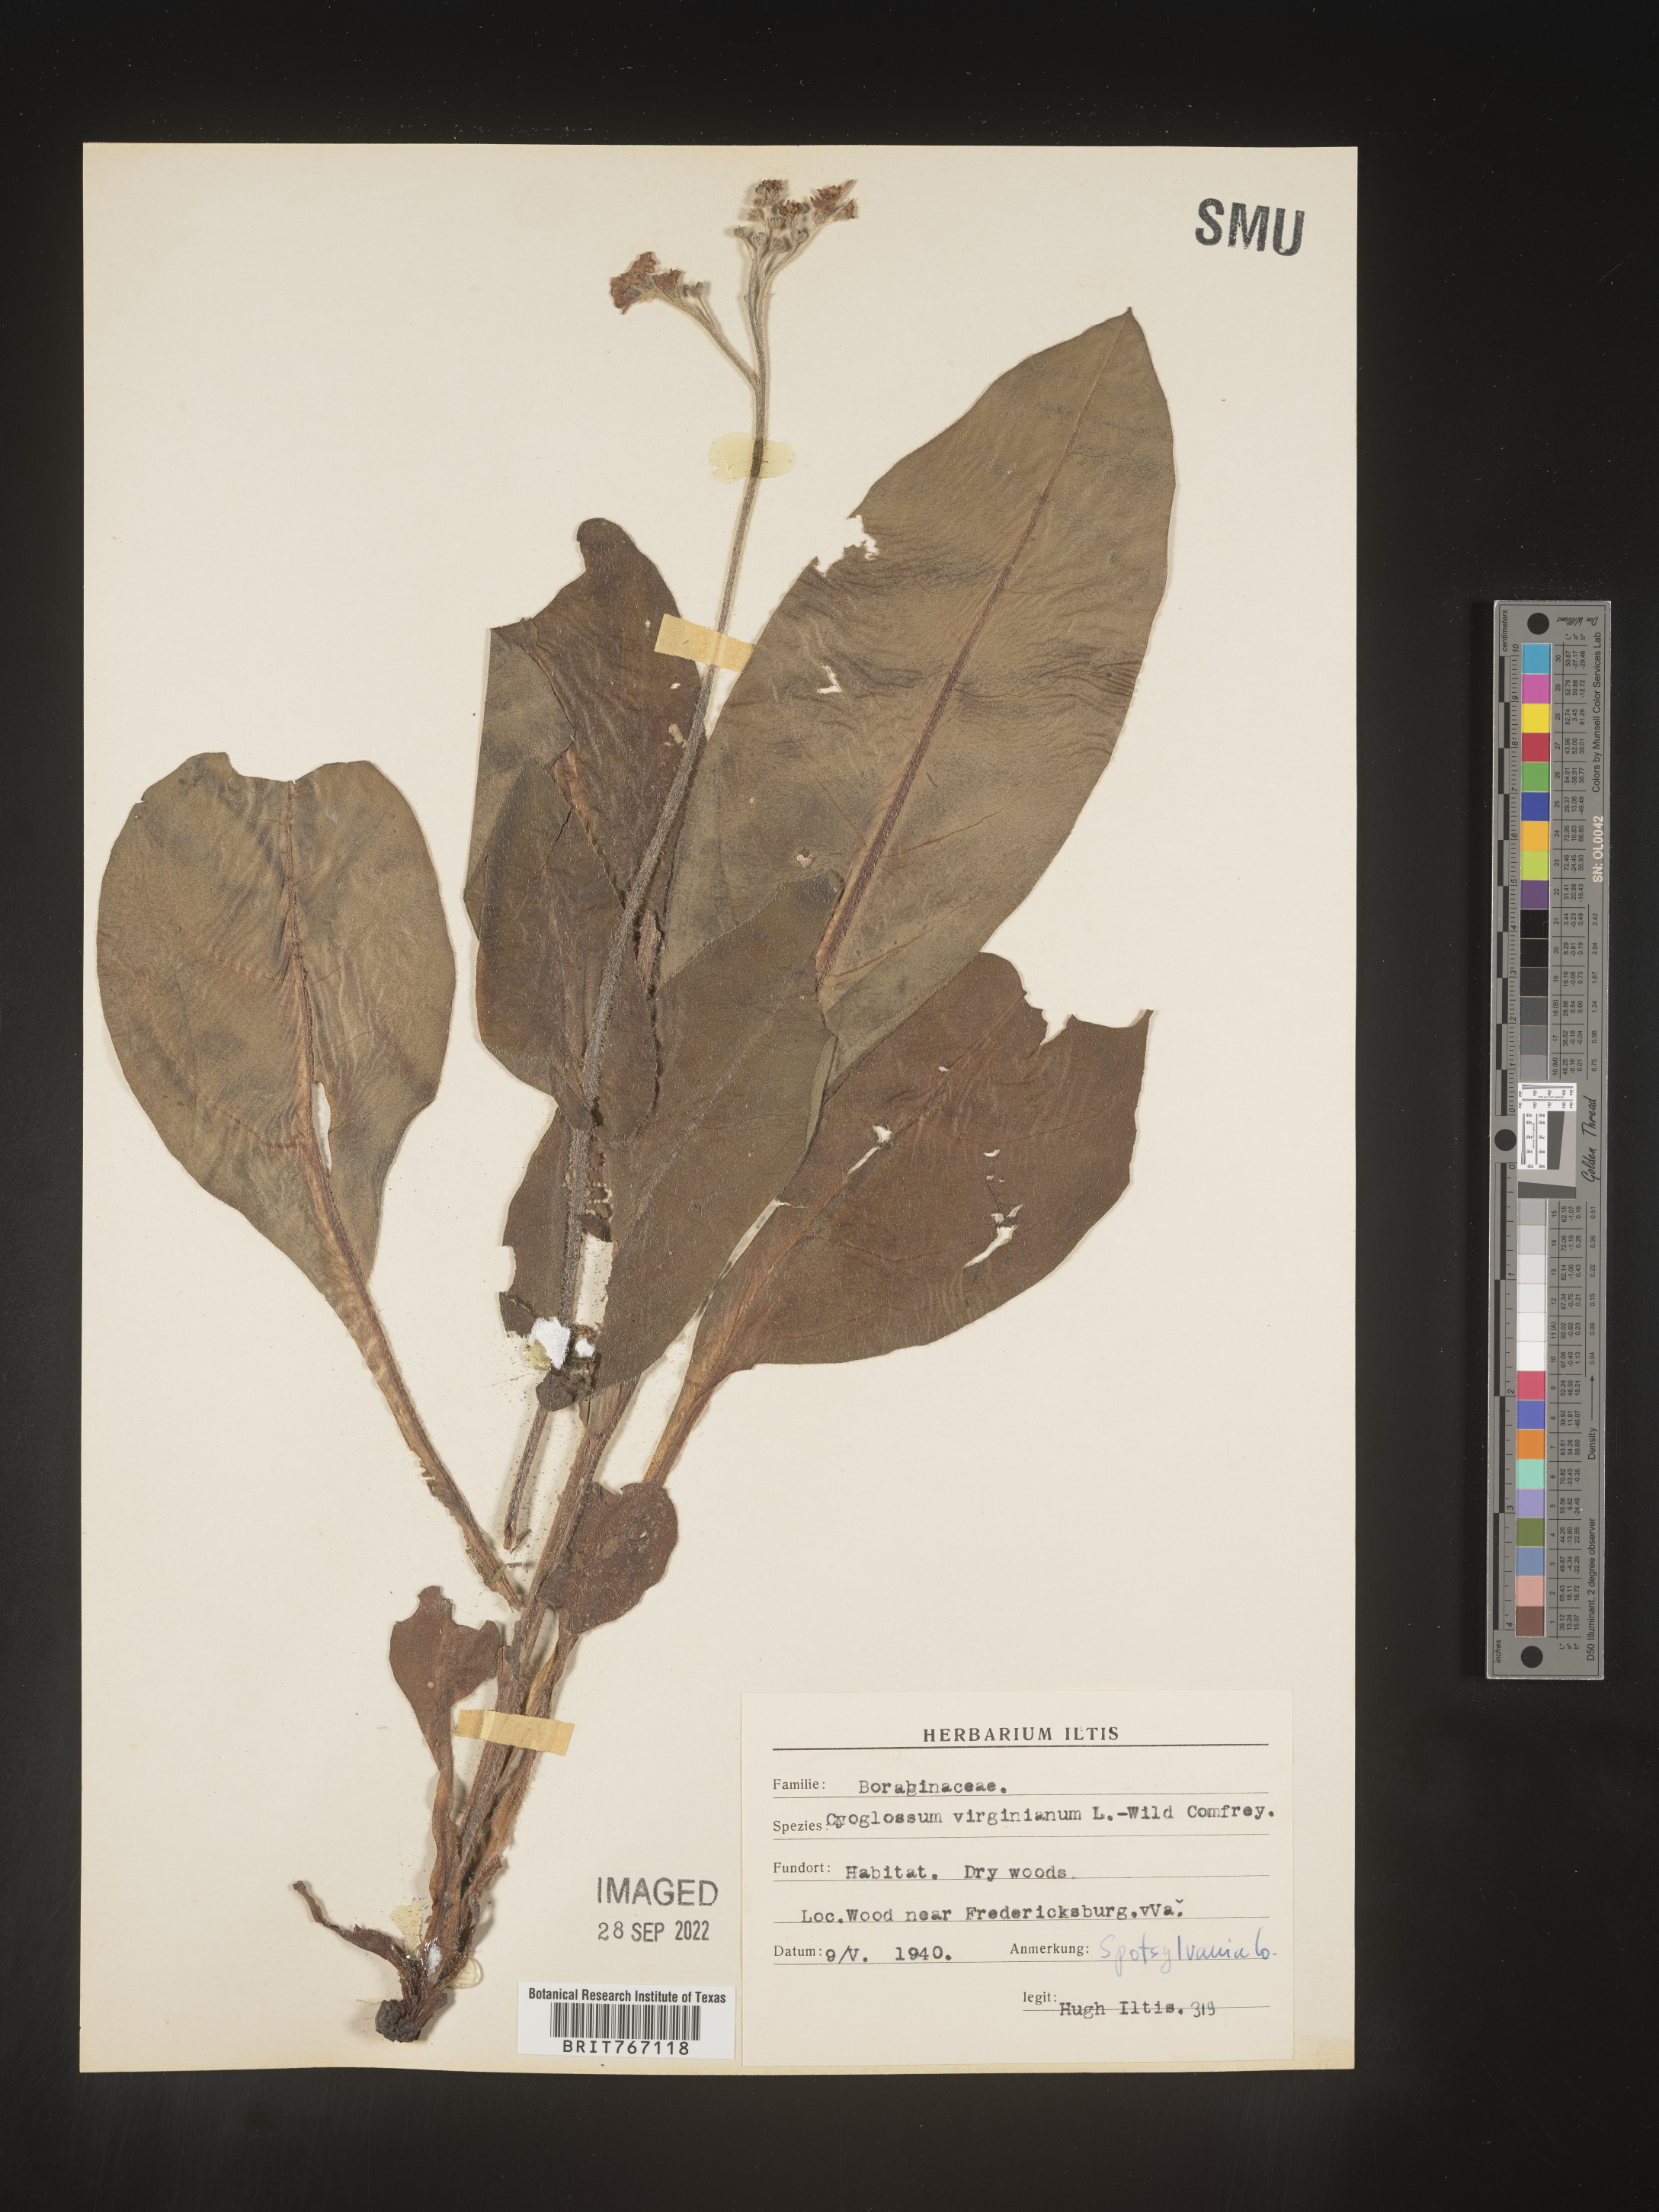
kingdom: Plantae
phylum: Tracheophyta
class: Magnoliopsida
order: Boraginales
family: Boraginaceae
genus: Andersonglossum
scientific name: Andersonglossum virginianum
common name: Wild comfrey
